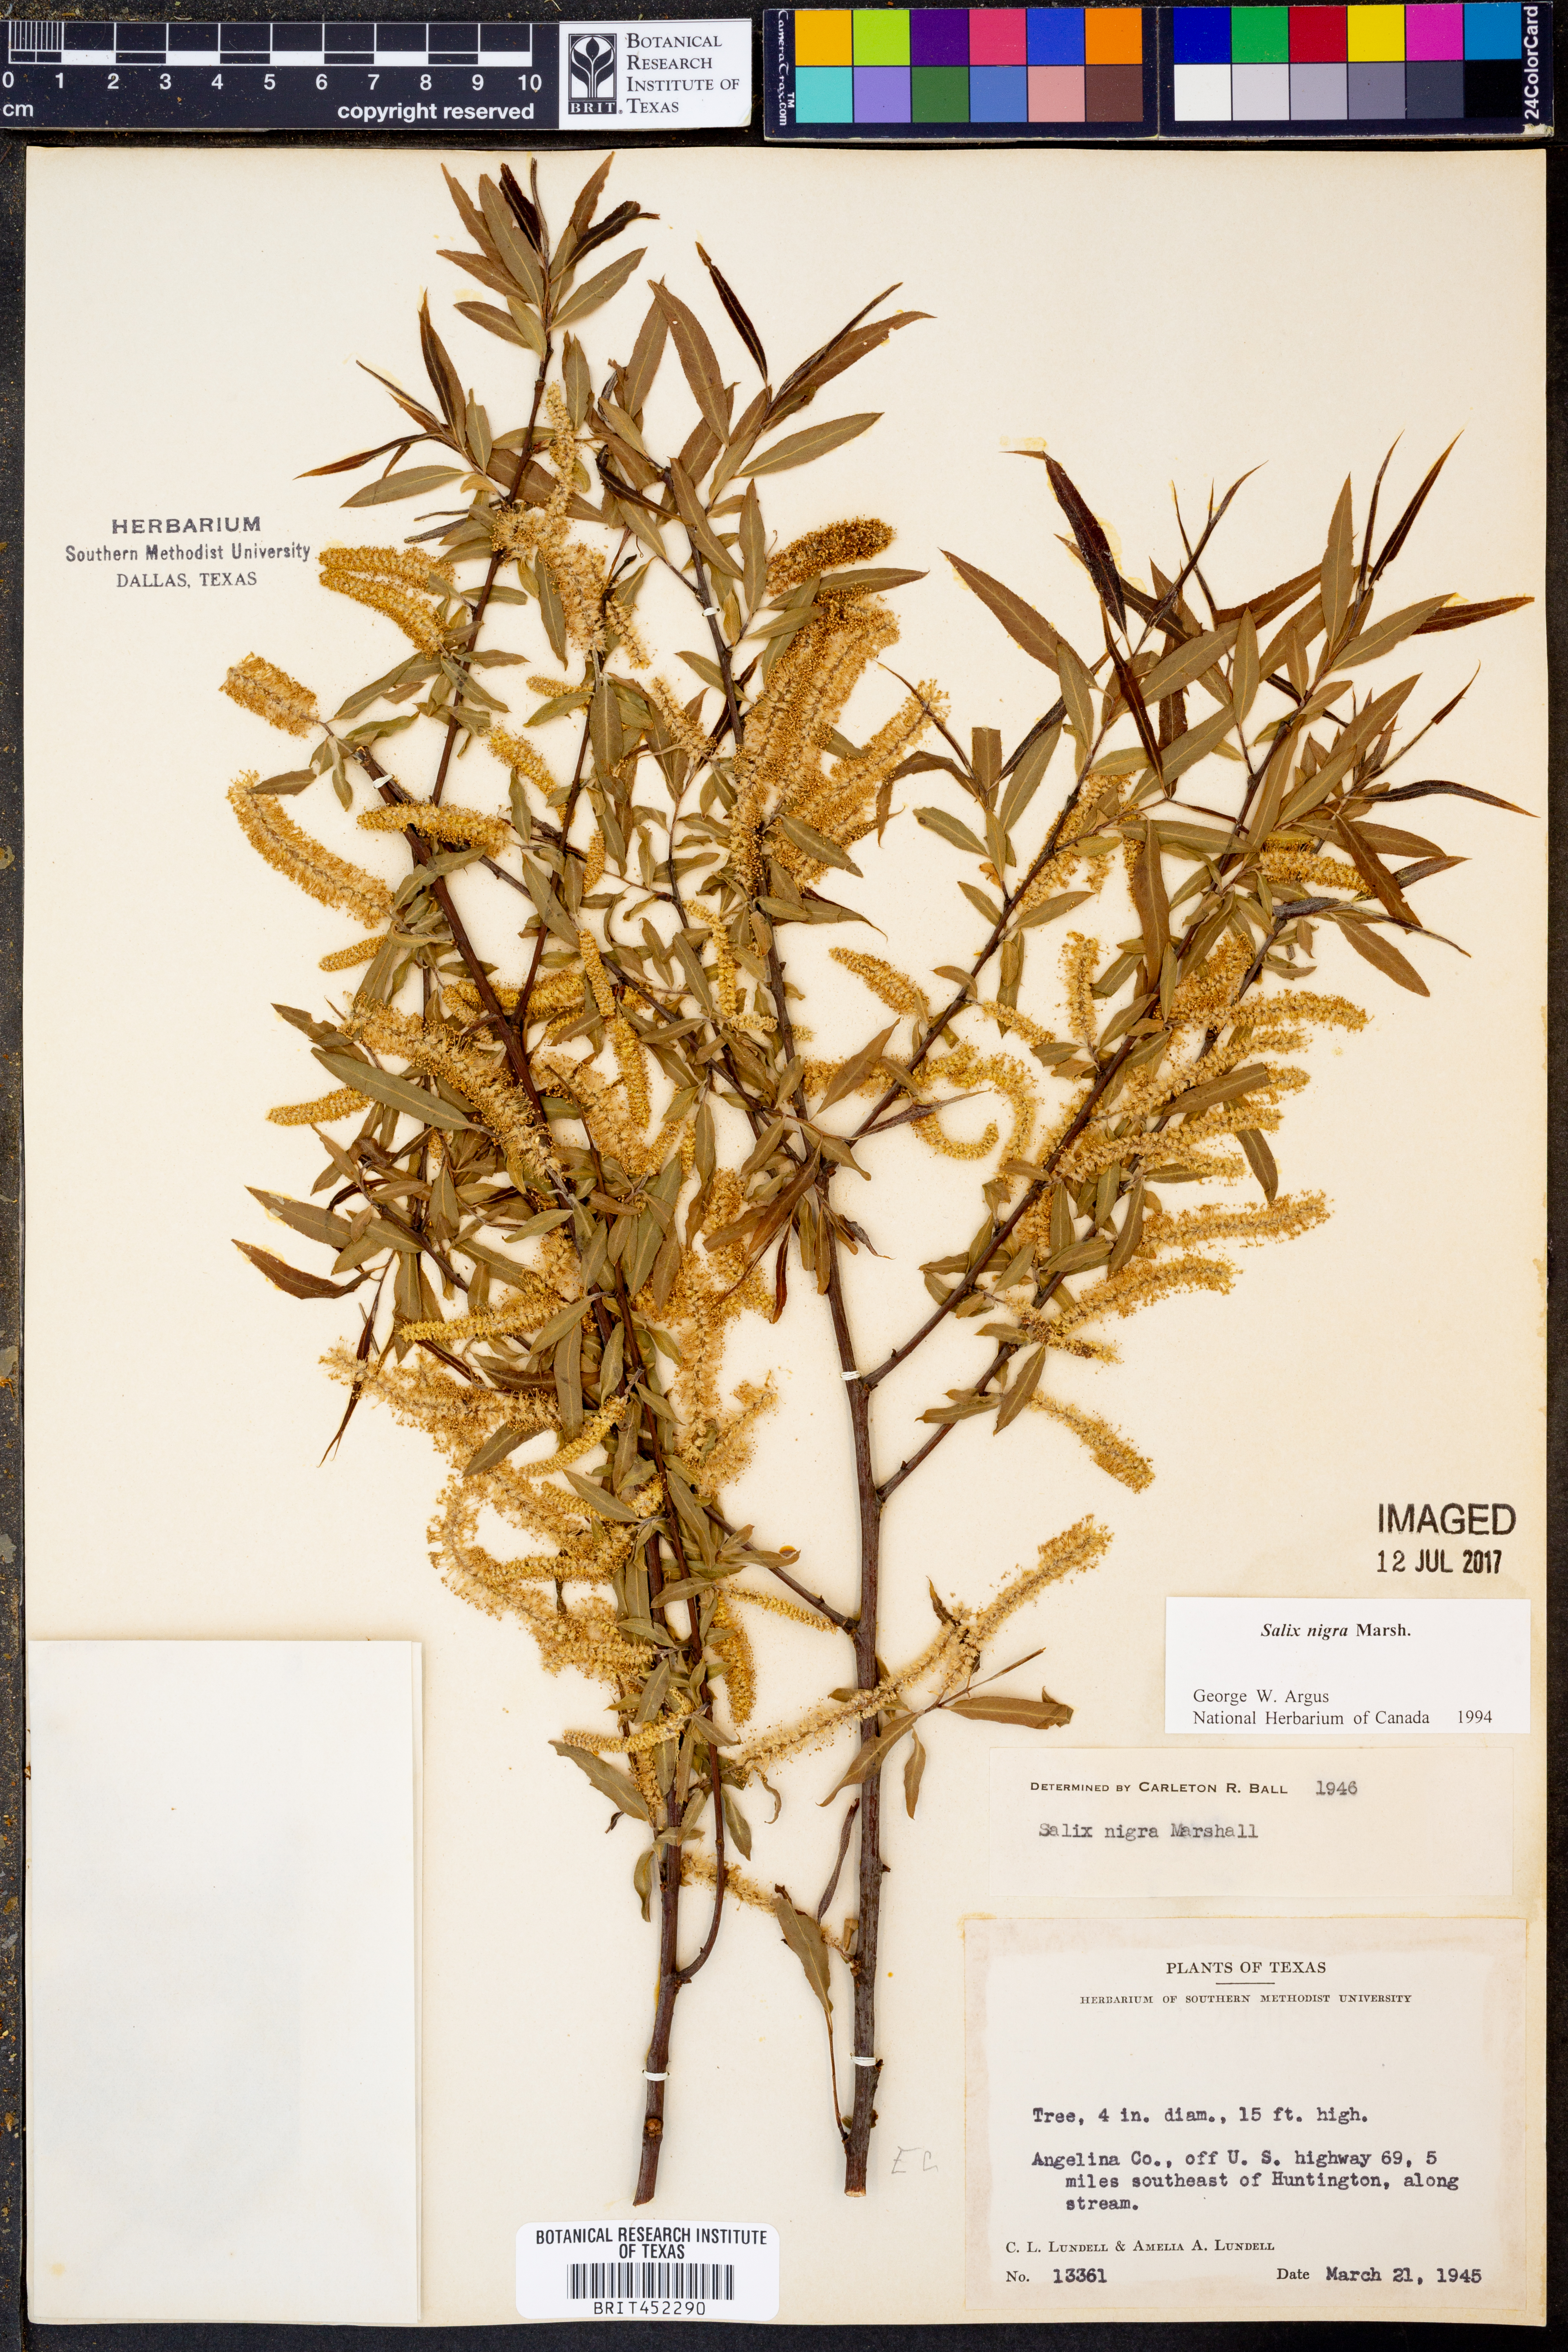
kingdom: Plantae
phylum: Tracheophyta
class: Magnoliopsida
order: Malpighiales
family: Salicaceae
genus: Salix
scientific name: Salix nigra
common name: Black willow
